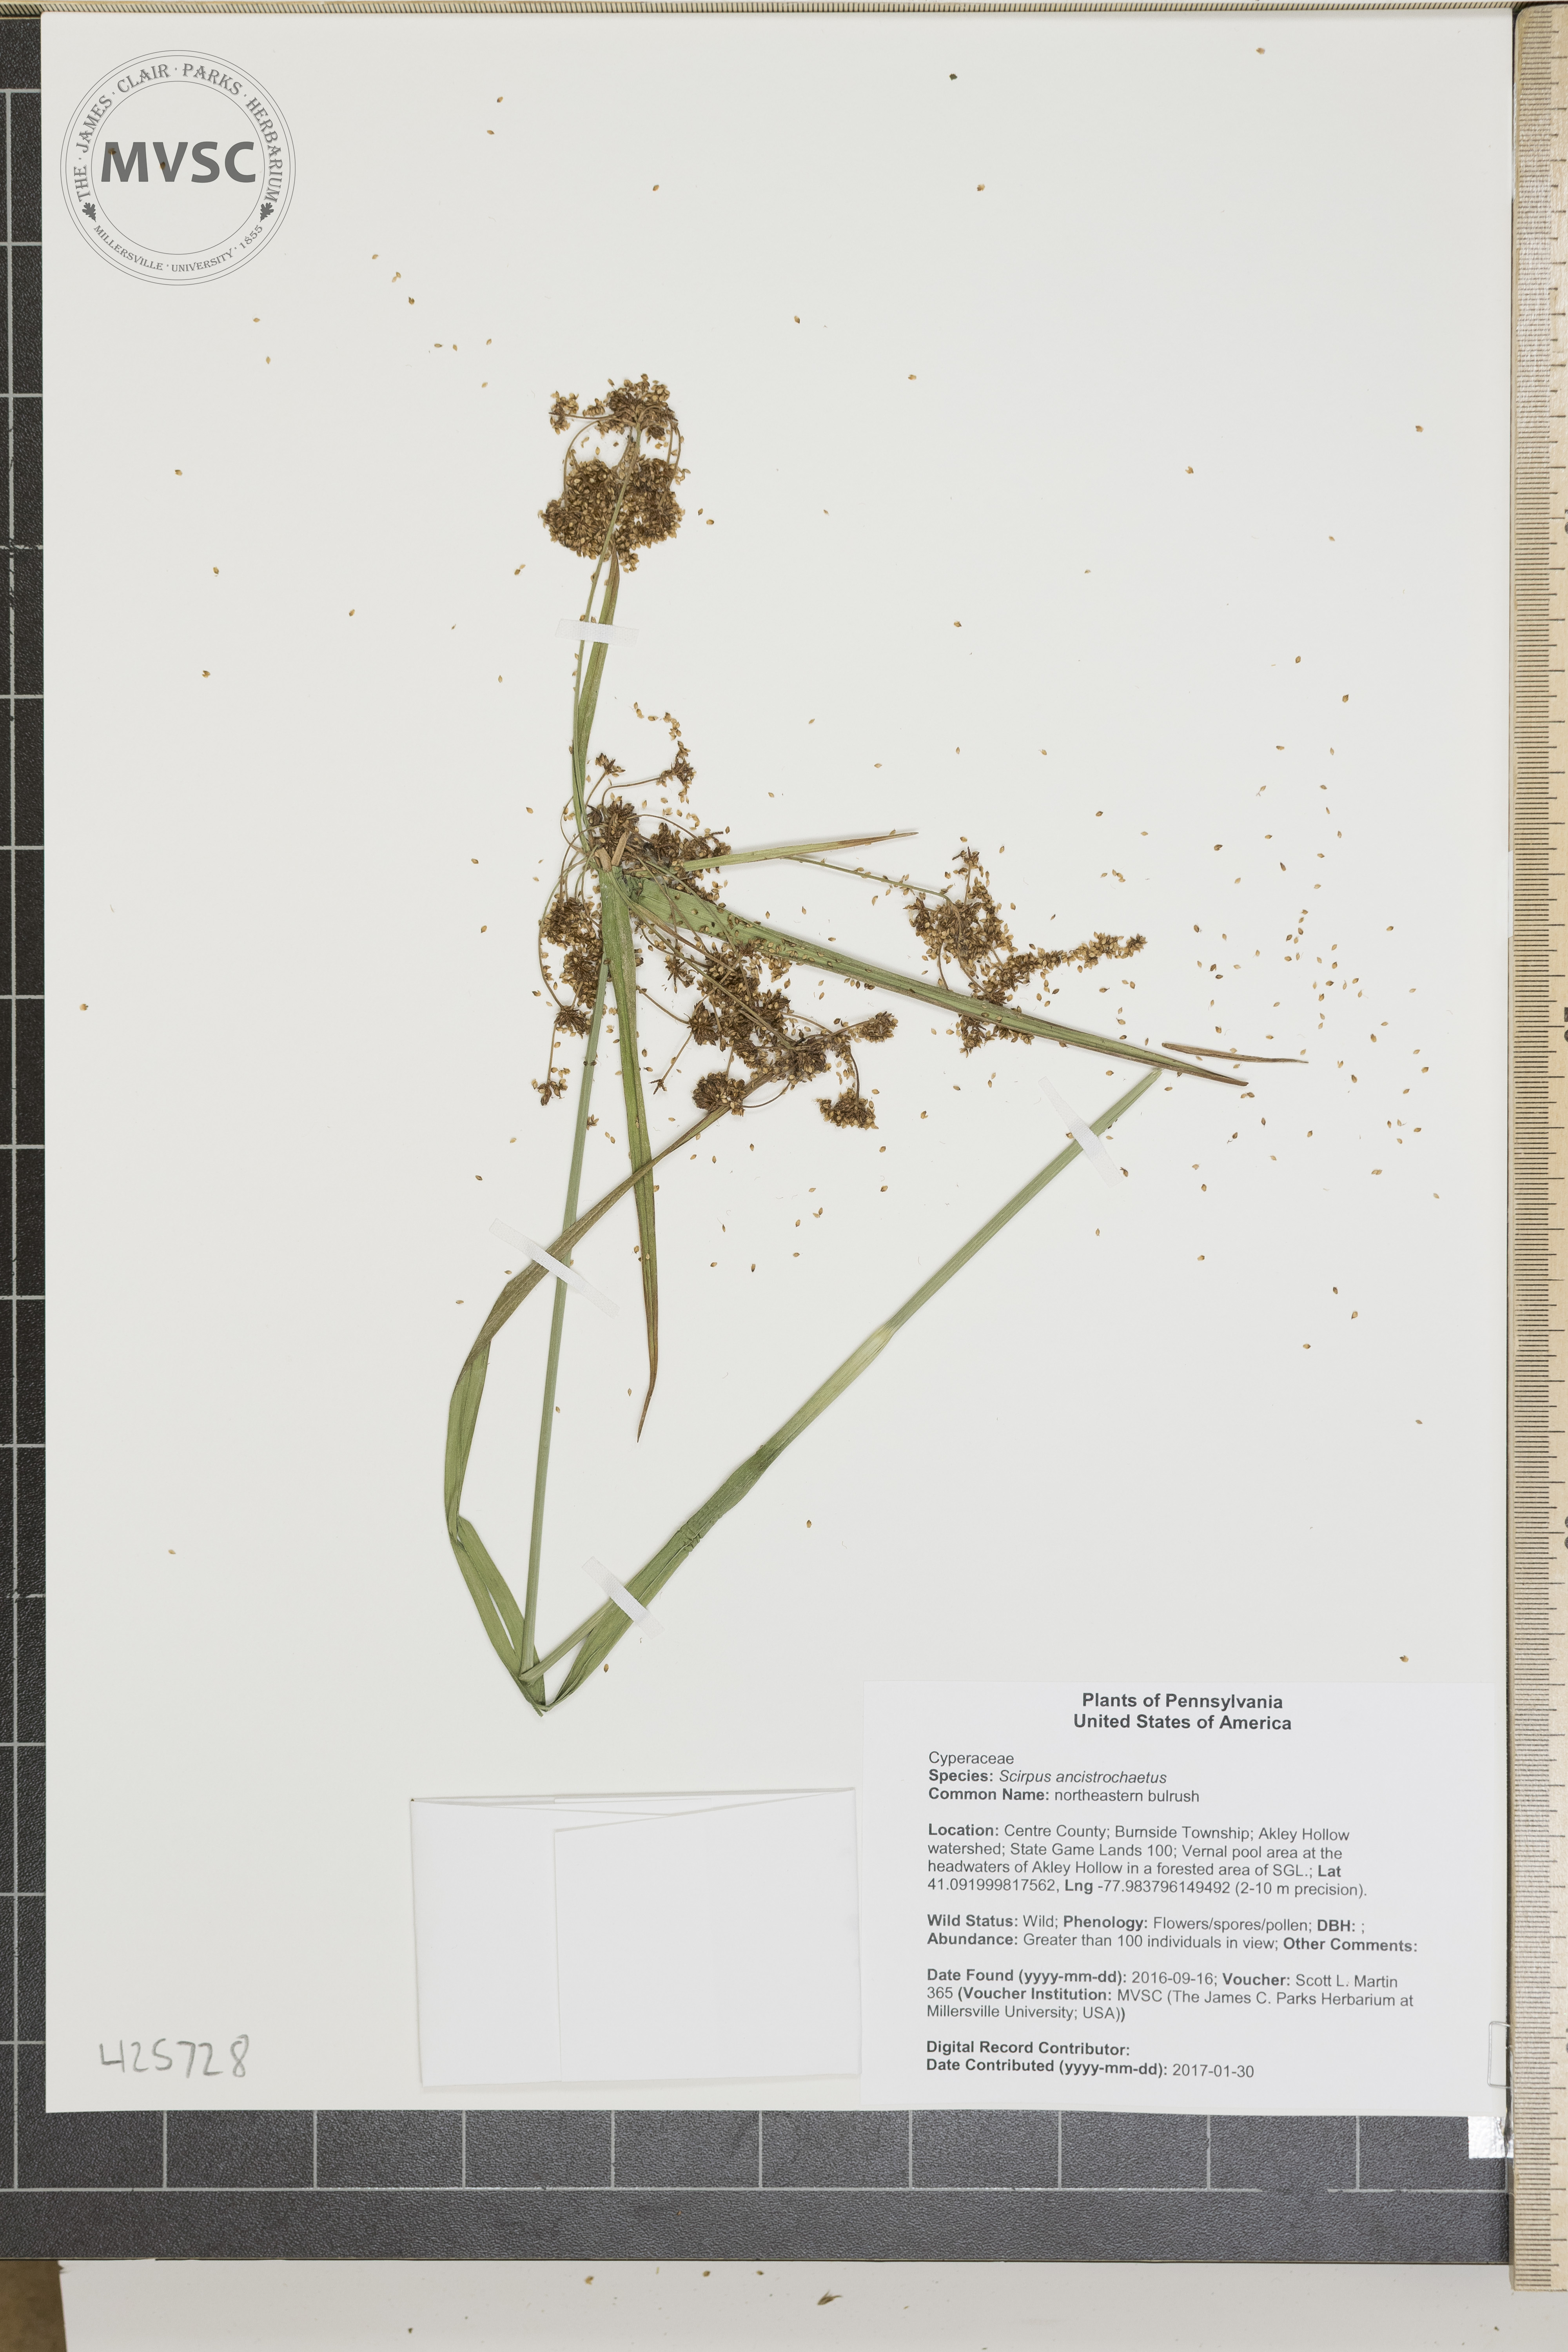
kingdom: Plantae
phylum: Tracheophyta
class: Liliopsida
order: Poales
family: Cyperaceae
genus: Scirpus
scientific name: Scirpus ancistrochaetus
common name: northeastern bulrush
